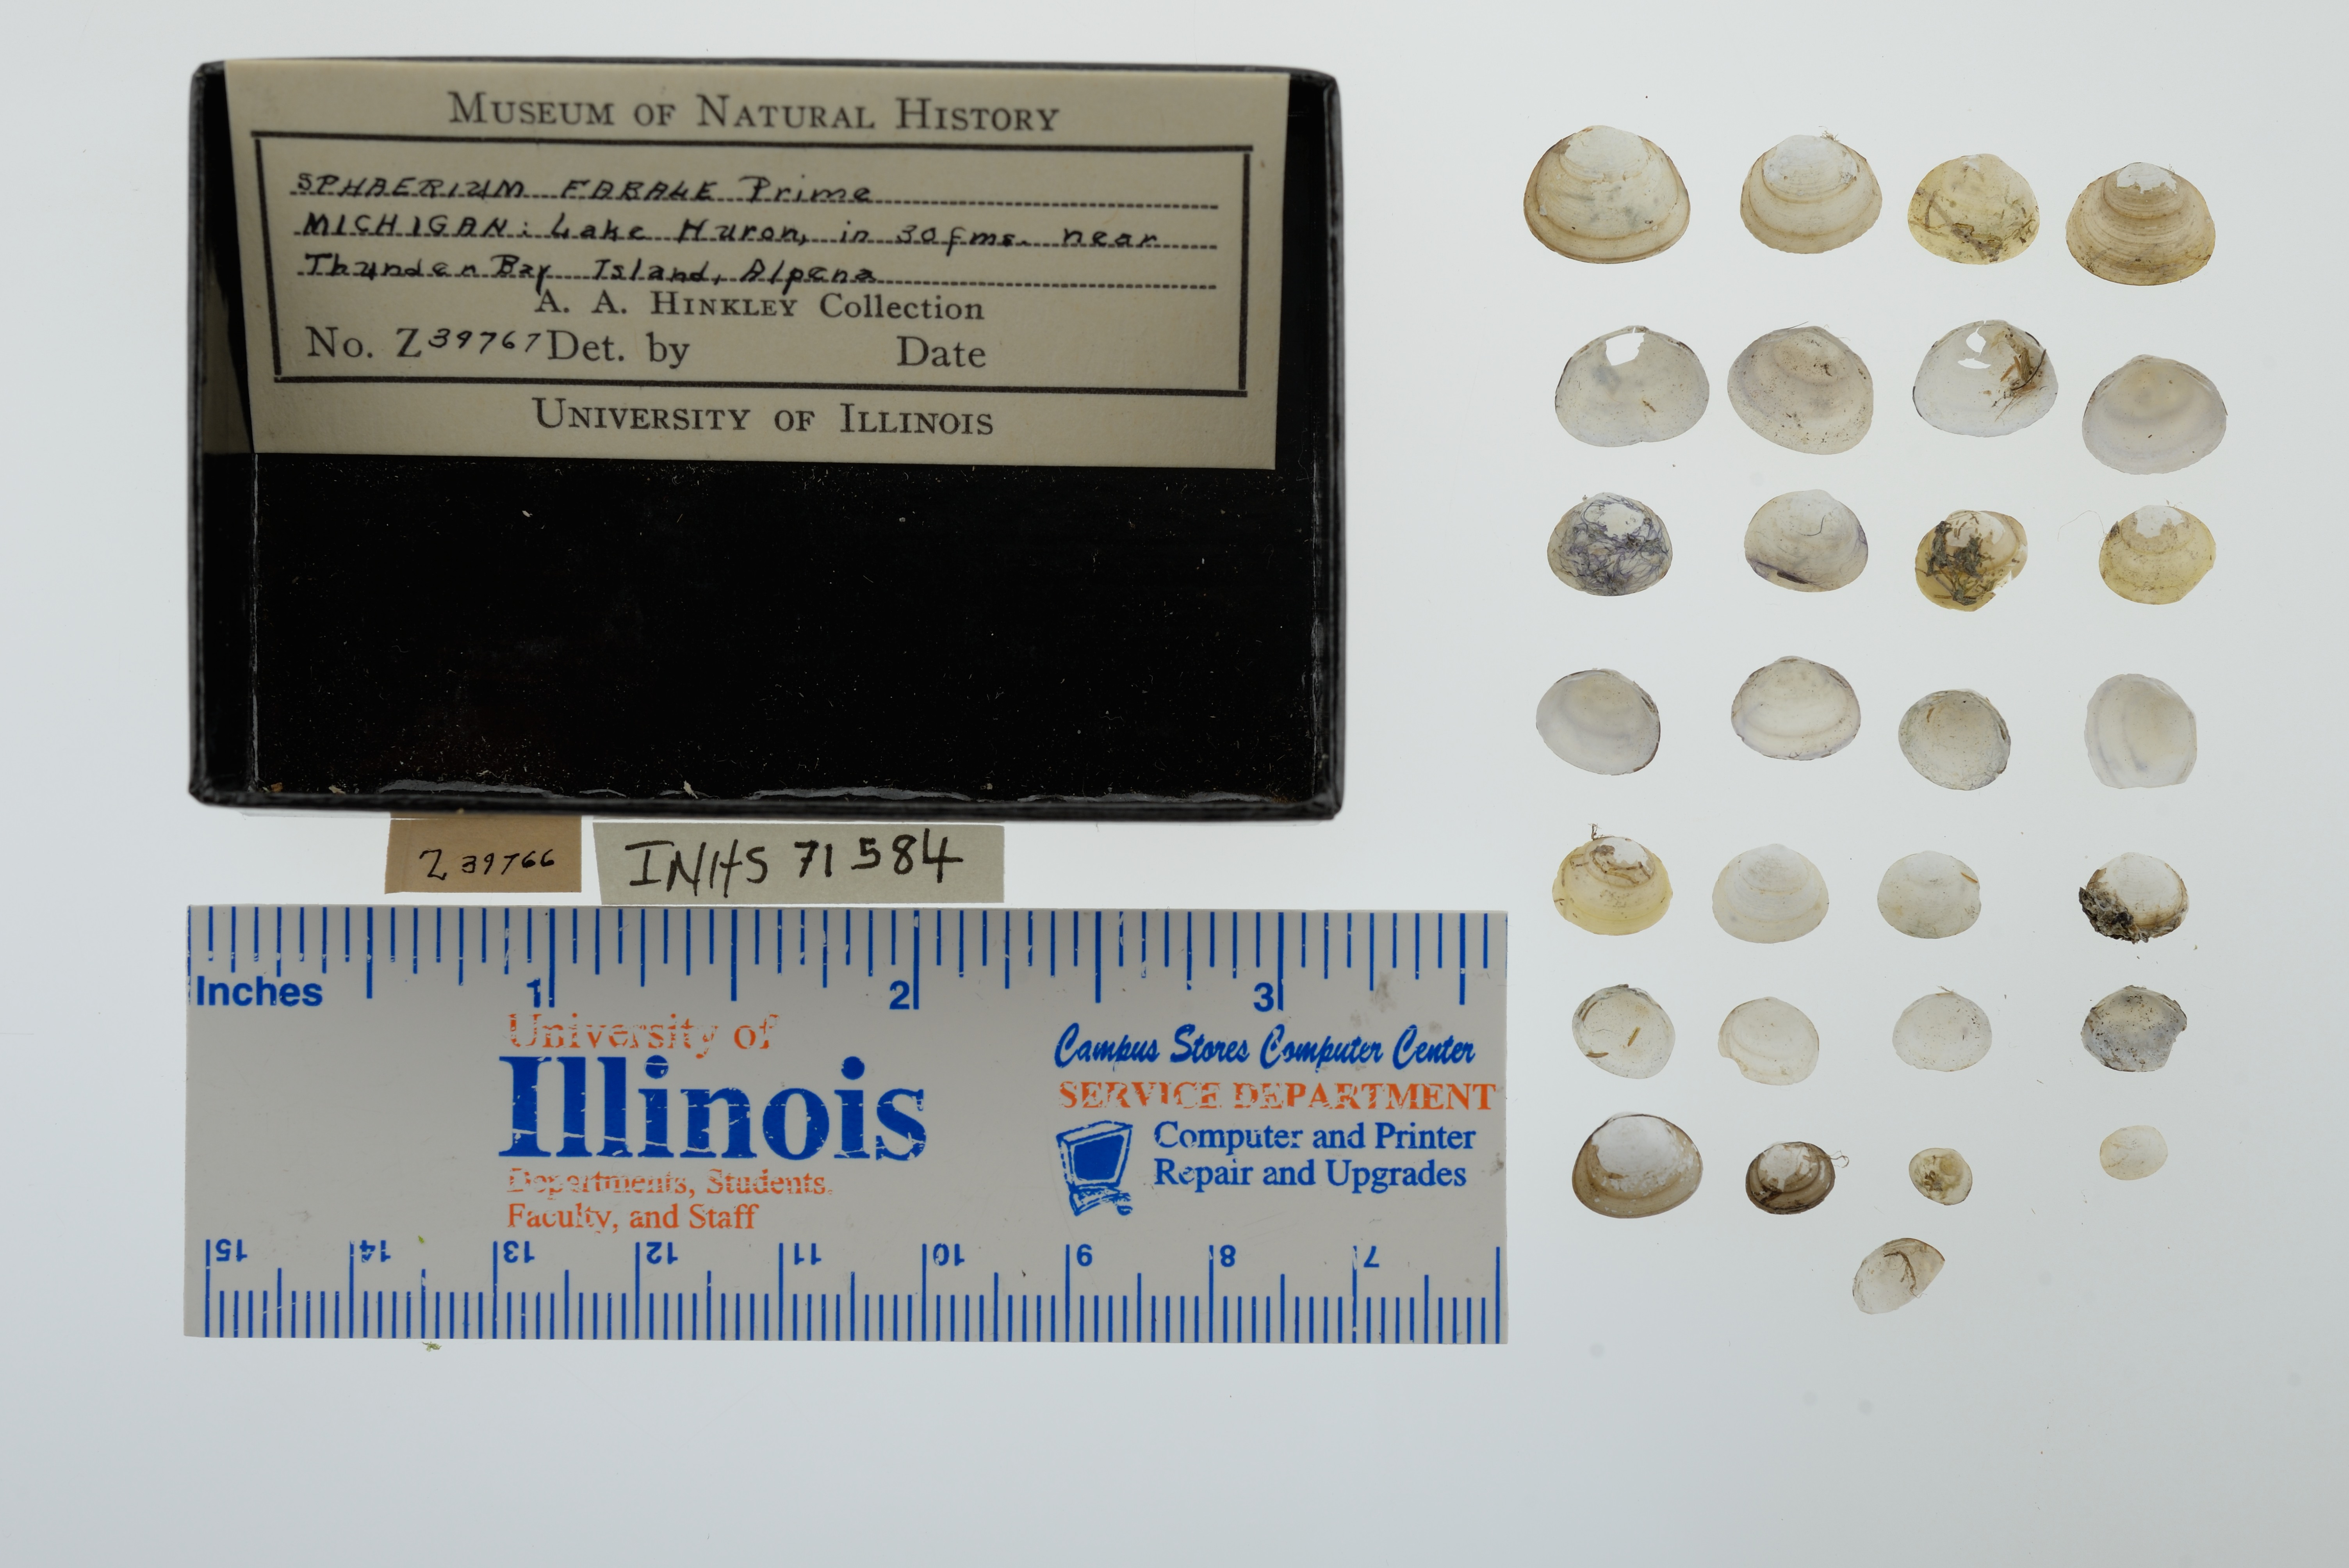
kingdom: Animalia
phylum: Mollusca
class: Bivalvia
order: Sphaeriida
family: Sphaeriidae
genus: Sphaerium
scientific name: Sphaerium fabale
